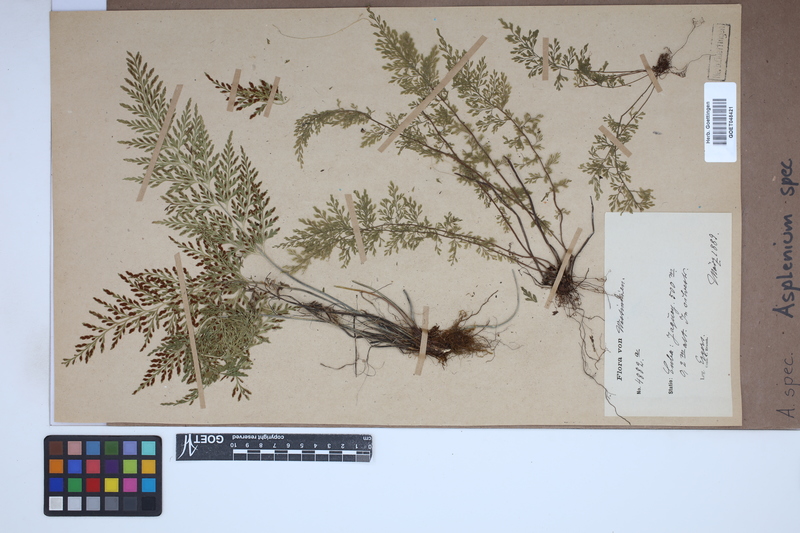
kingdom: Plantae
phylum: Tracheophyta
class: Polypodiopsida
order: Polypodiales
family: Aspleniaceae
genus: Asplenium
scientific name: Asplenium
